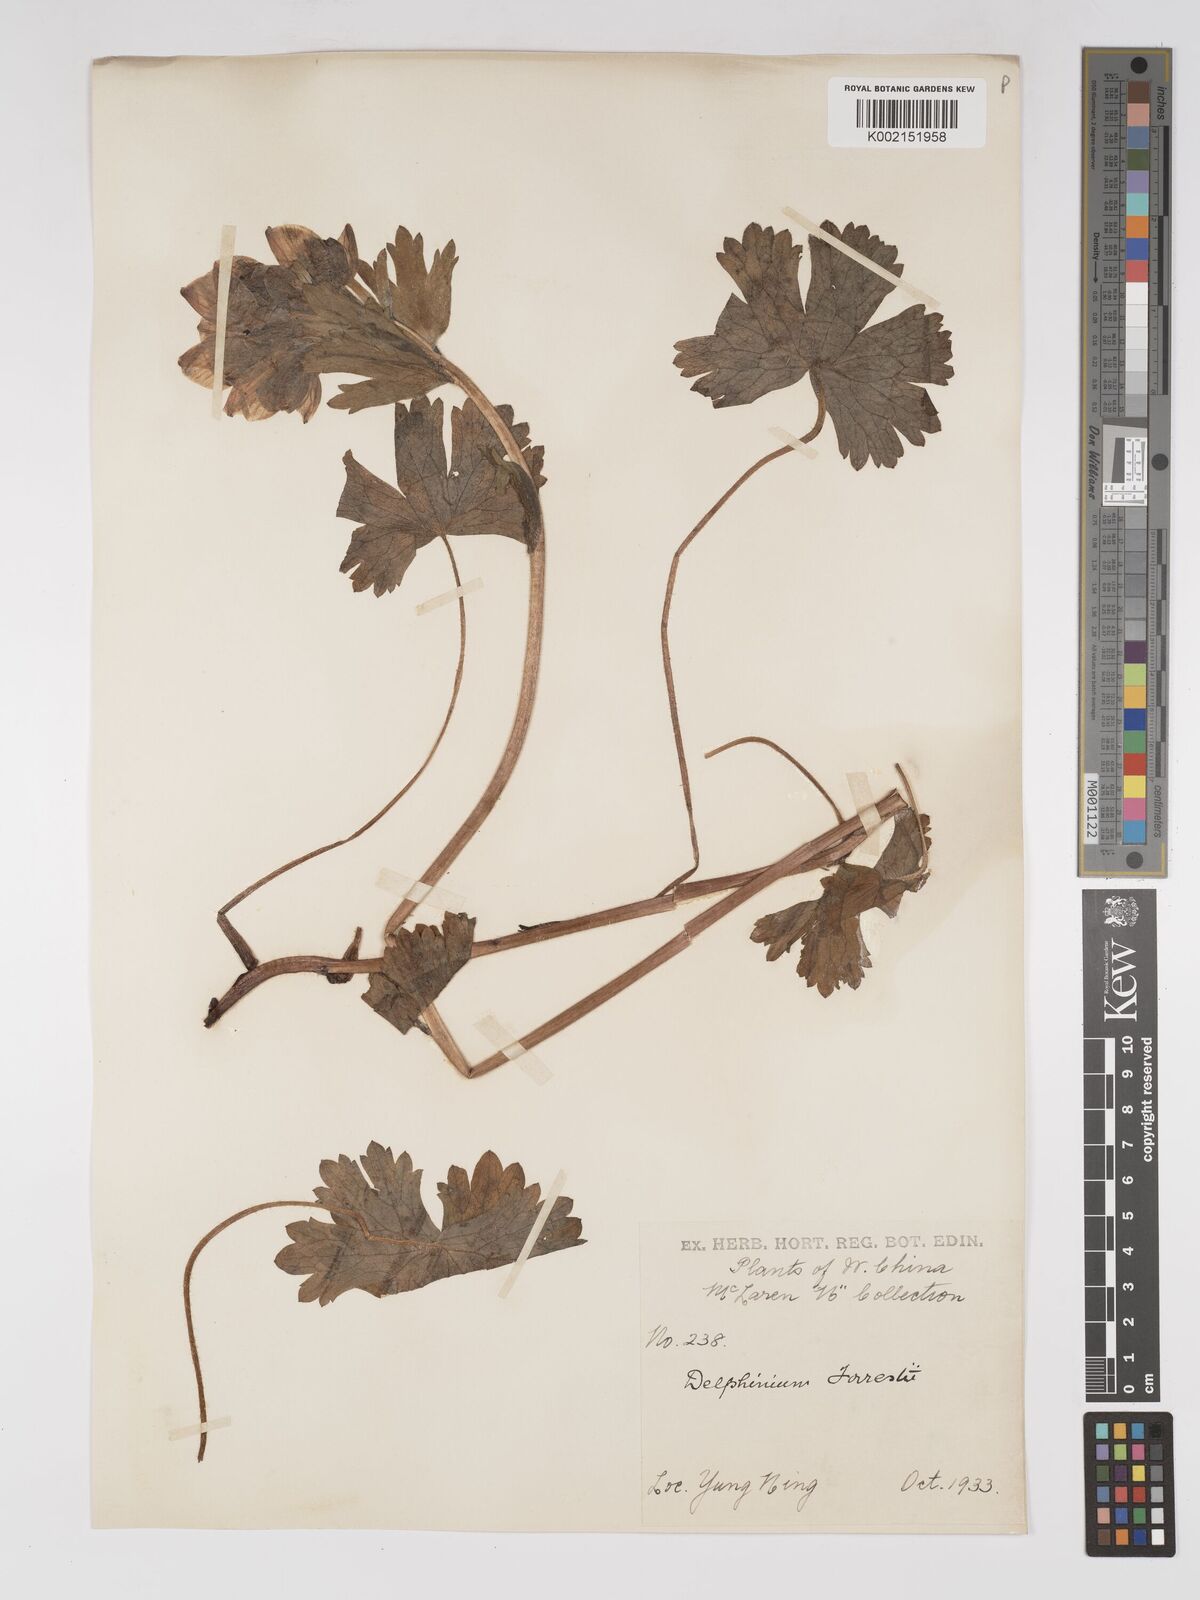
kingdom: Plantae
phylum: Tracheophyta
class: Magnoliopsida
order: Ranunculales
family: Ranunculaceae
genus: Delphinium
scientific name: Delphinium trichophorum
